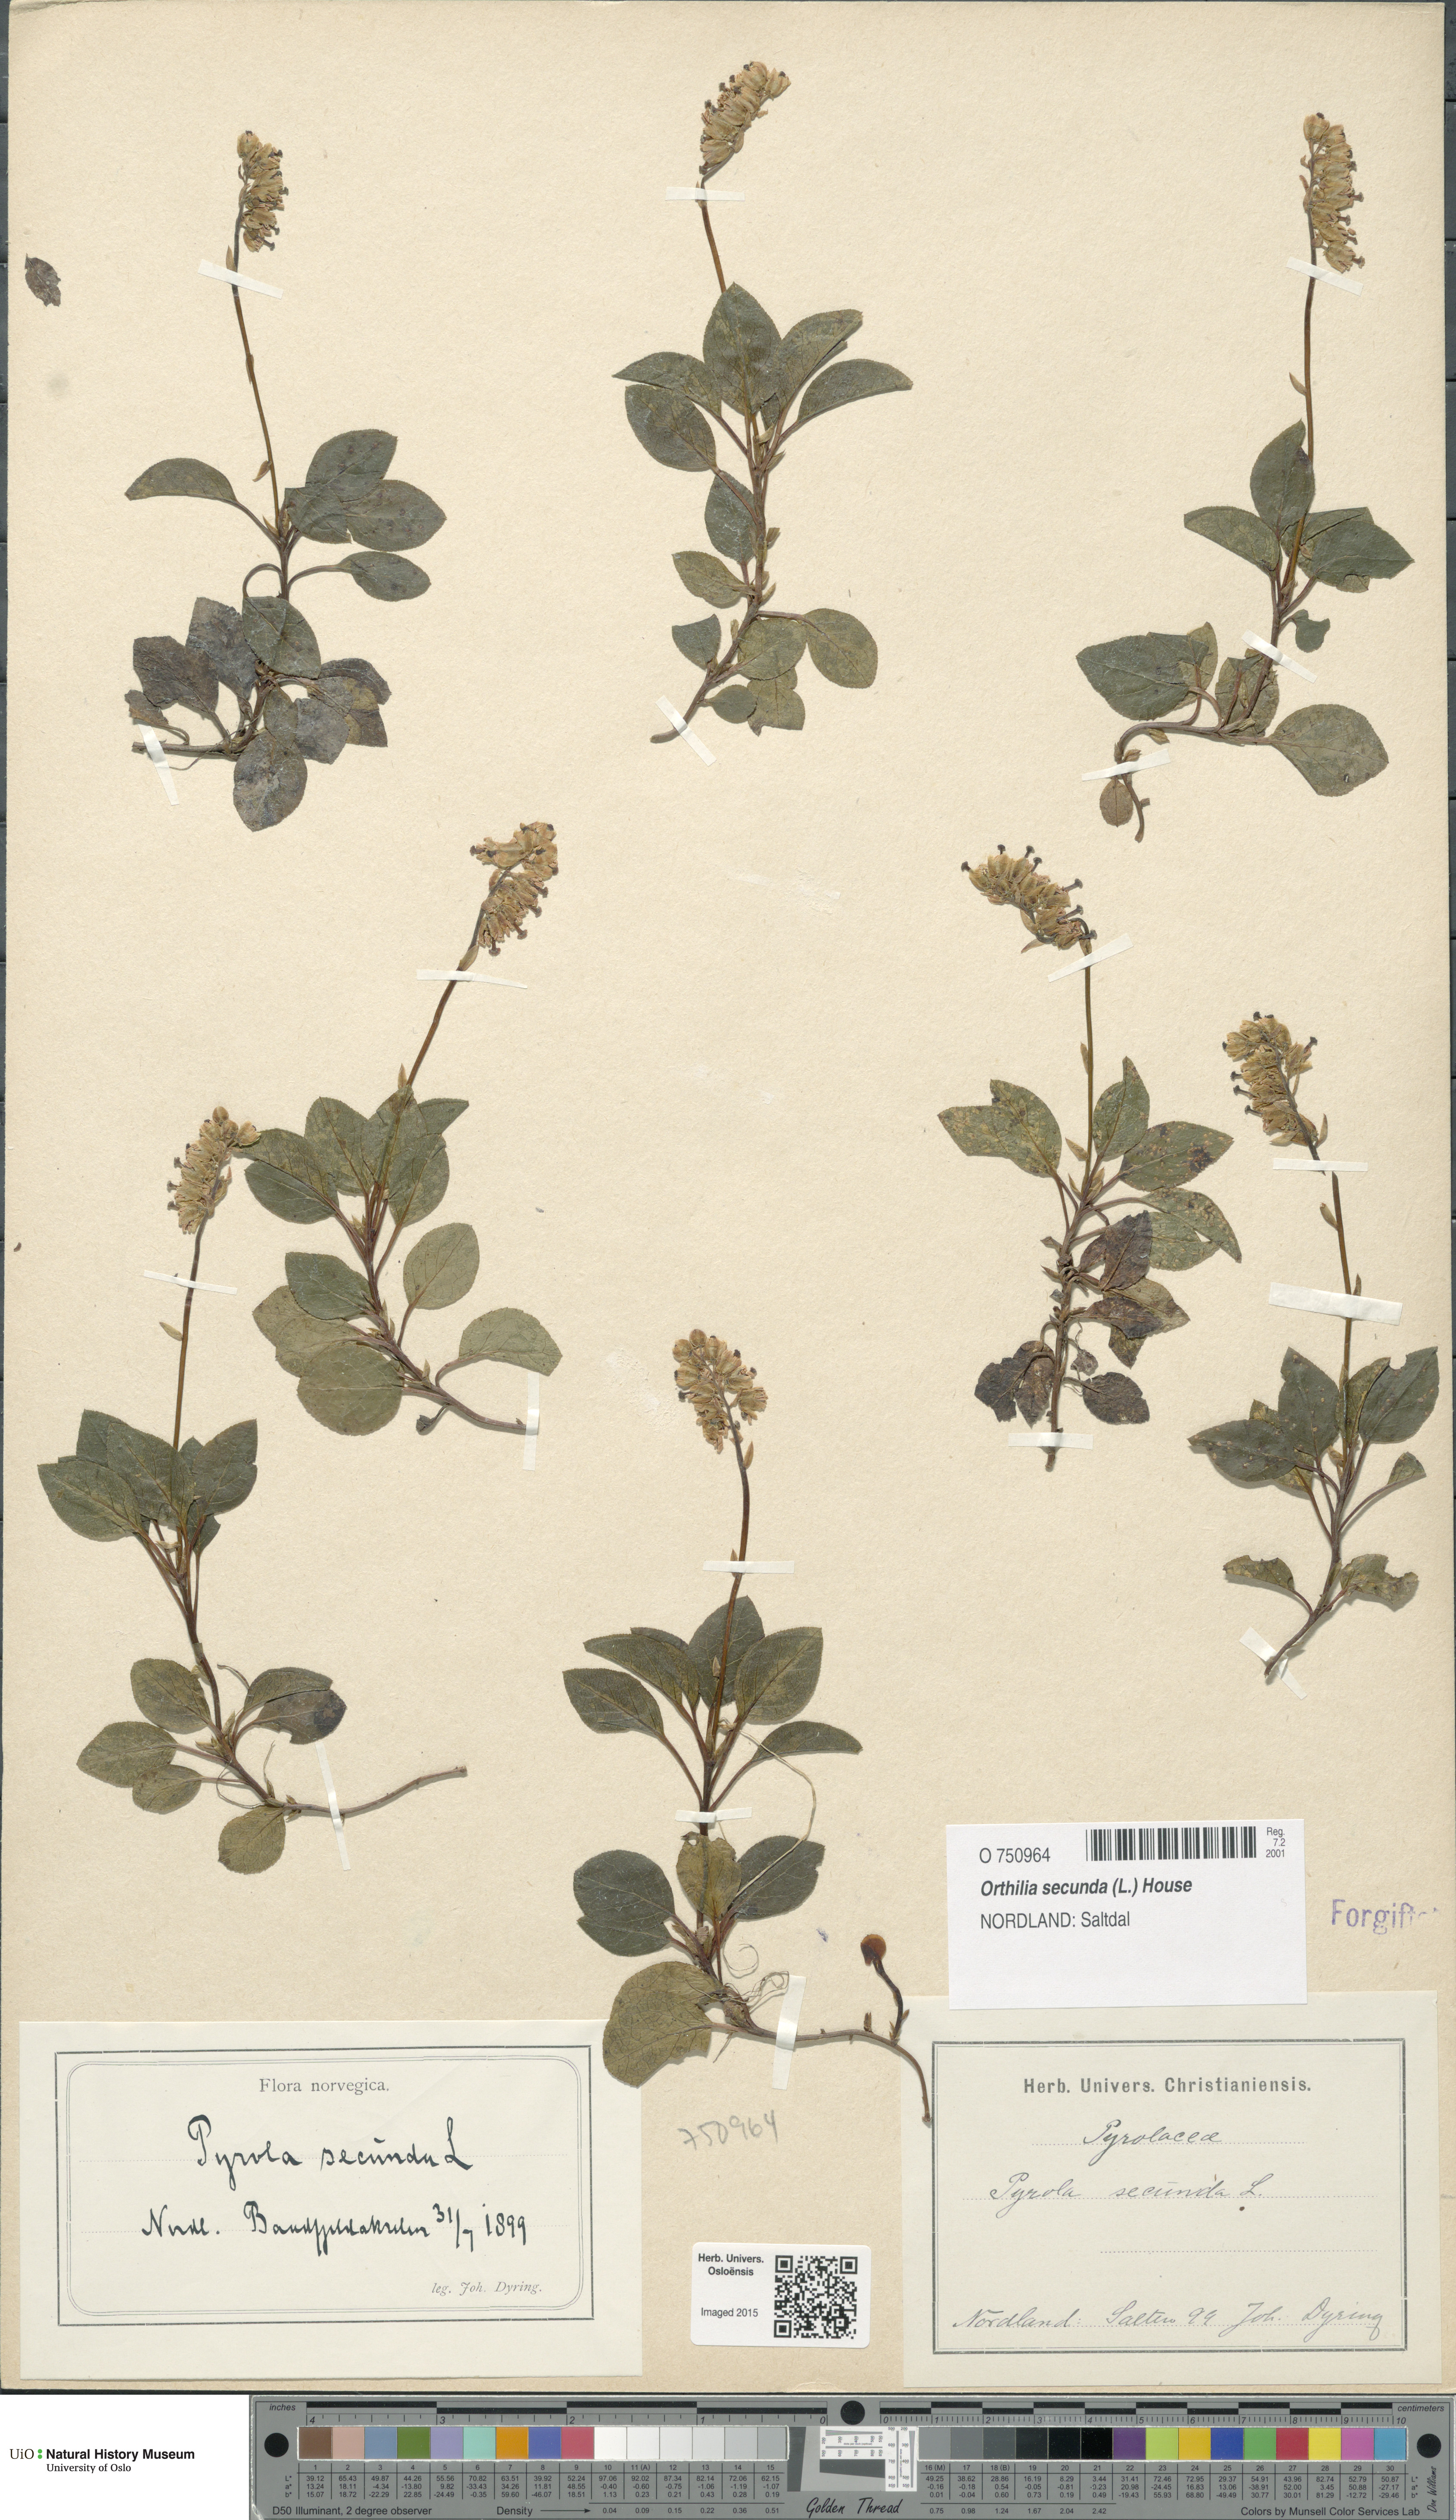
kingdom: Plantae
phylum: Tracheophyta
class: Magnoliopsida
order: Ericales
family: Ericaceae
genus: Orthilia
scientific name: Orthilia secunda
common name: One-sided orthilia
